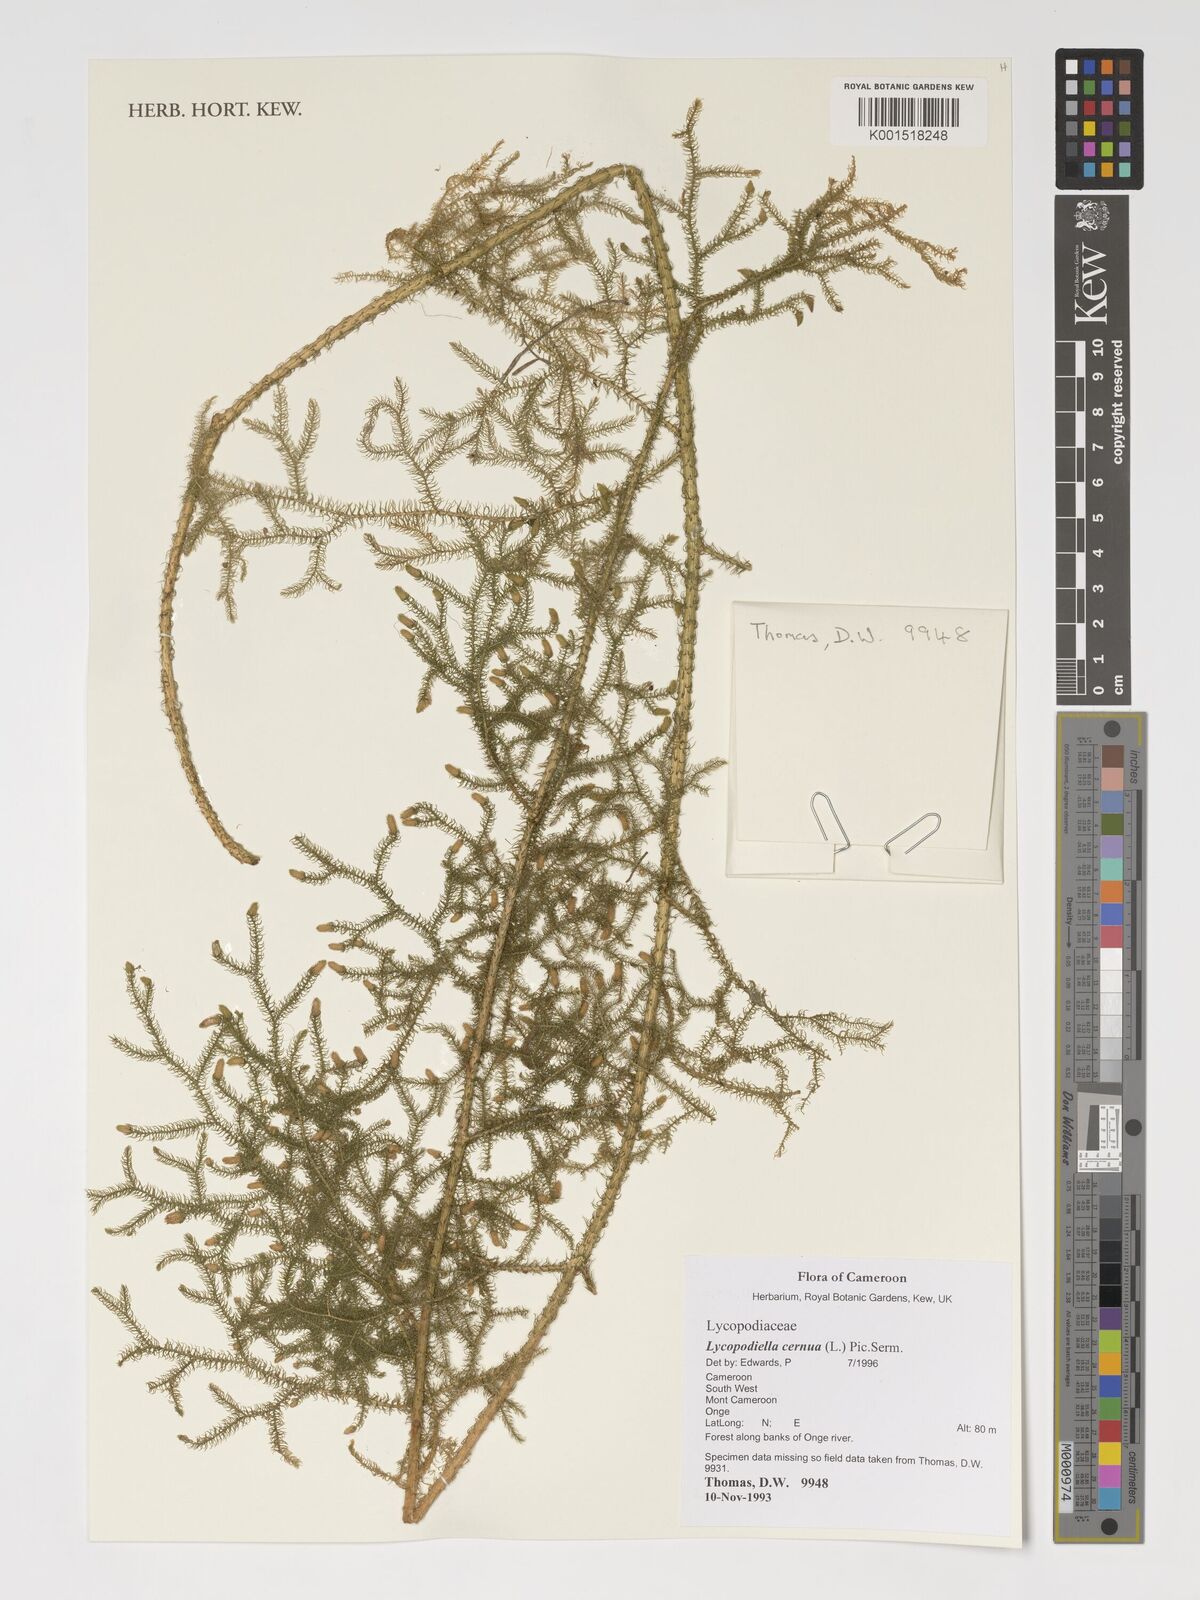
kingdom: Plantae
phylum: Tracheophyta
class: Lycopodiopsida
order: Lycopodiales
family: Lycopodiaceae
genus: Palhinhaea
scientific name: Palhinhaea cernua
